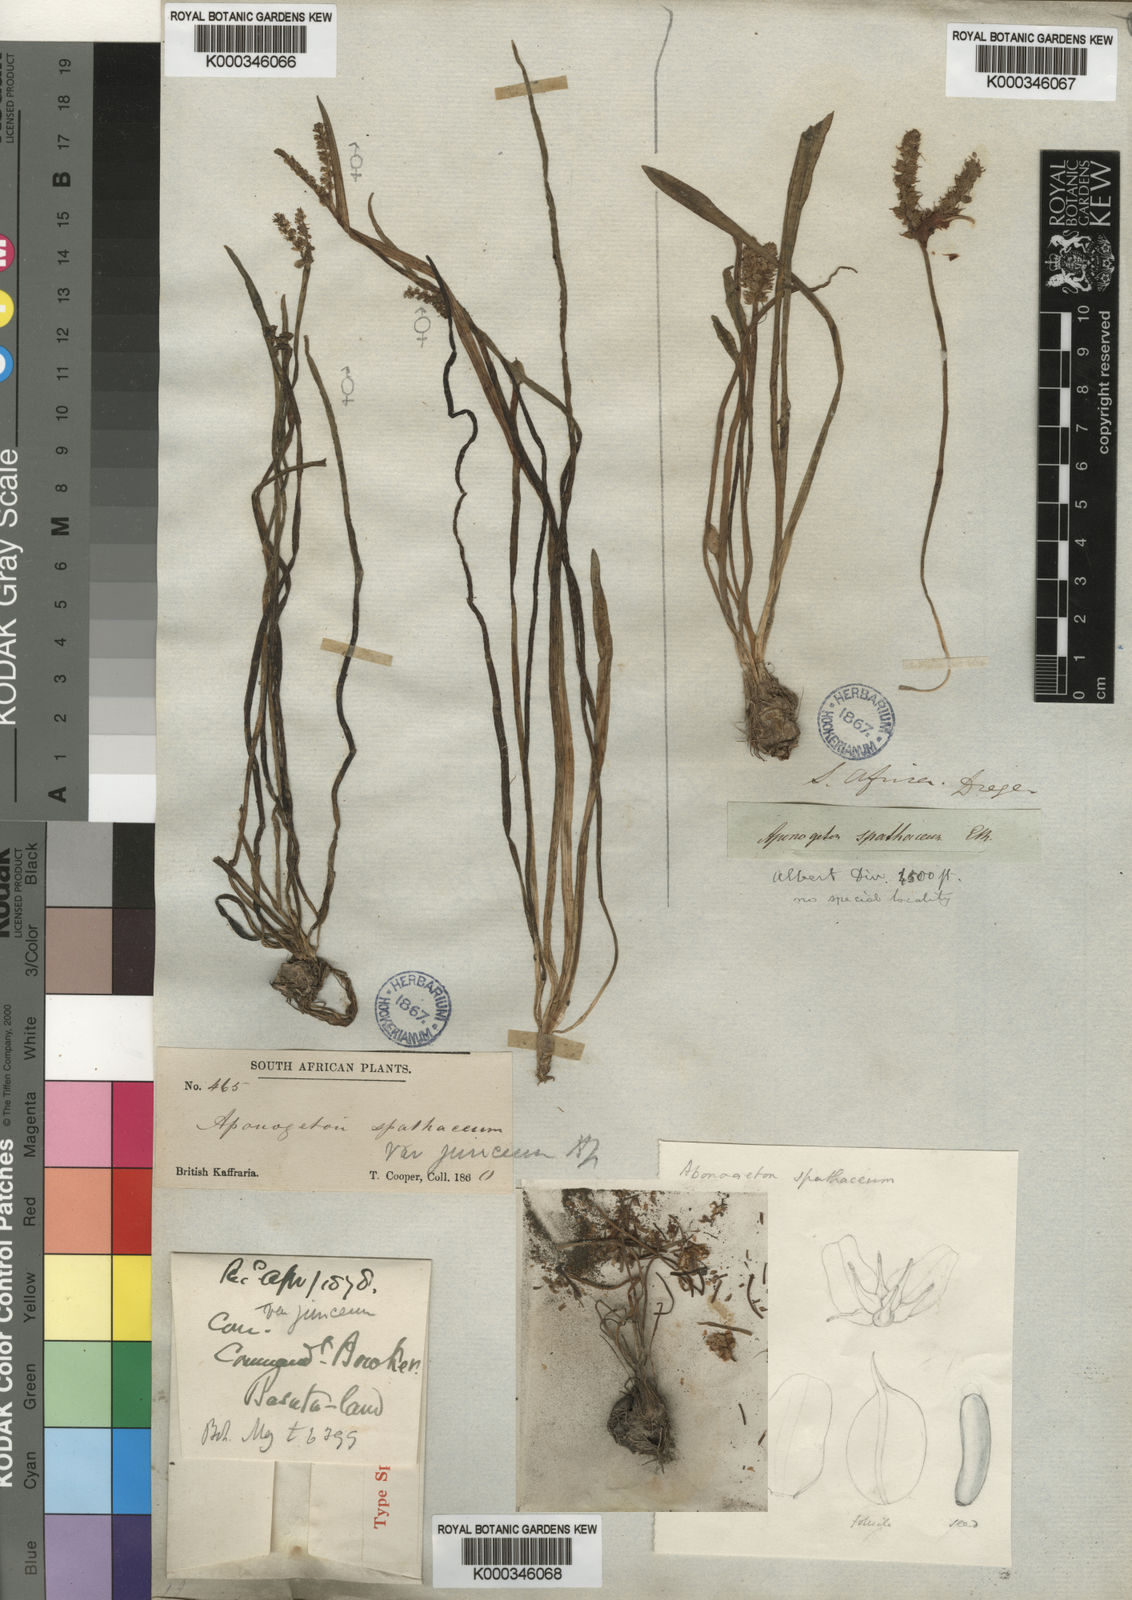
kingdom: Plantae
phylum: Tracheophyta
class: Liliopsida
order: Alismatales
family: Aponogetonaceae
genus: Aponogeton
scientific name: Aponogeton junceus
